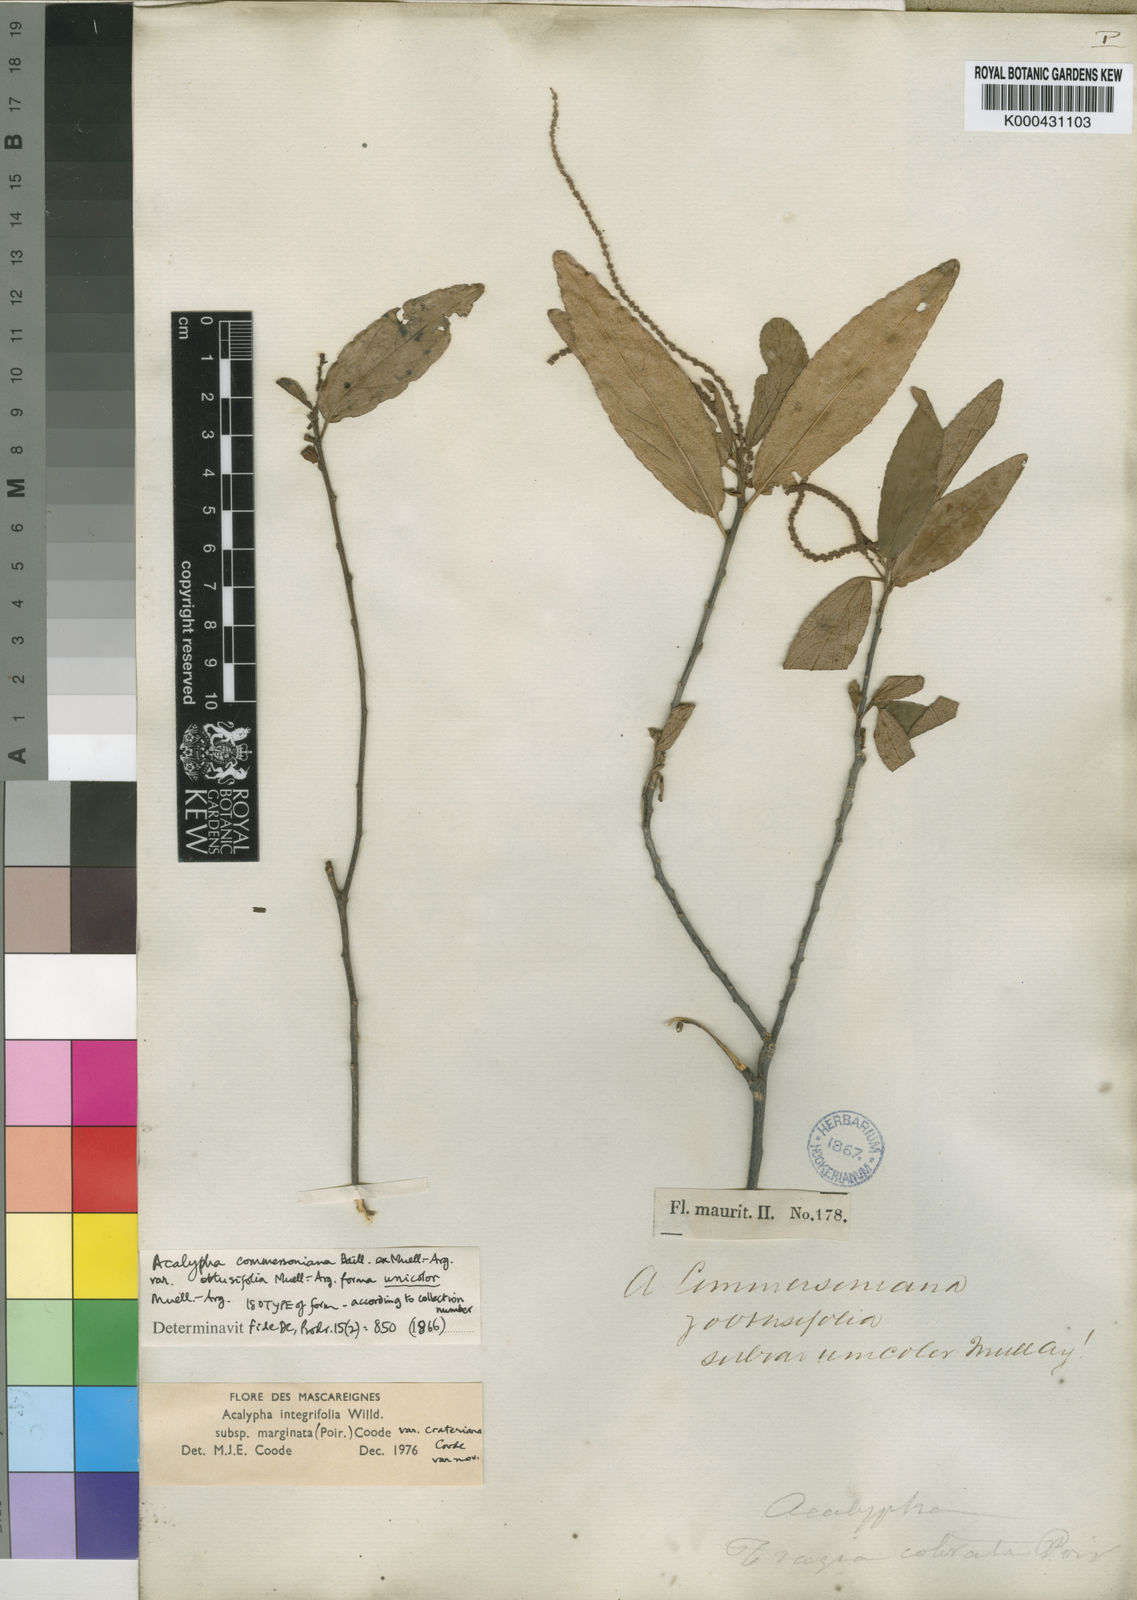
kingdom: Plantae
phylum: Tracheophyta
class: Magnoliopsida
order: Malpighiales
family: Euphorbiaceae
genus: Acalypha
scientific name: Acalypha marginata
